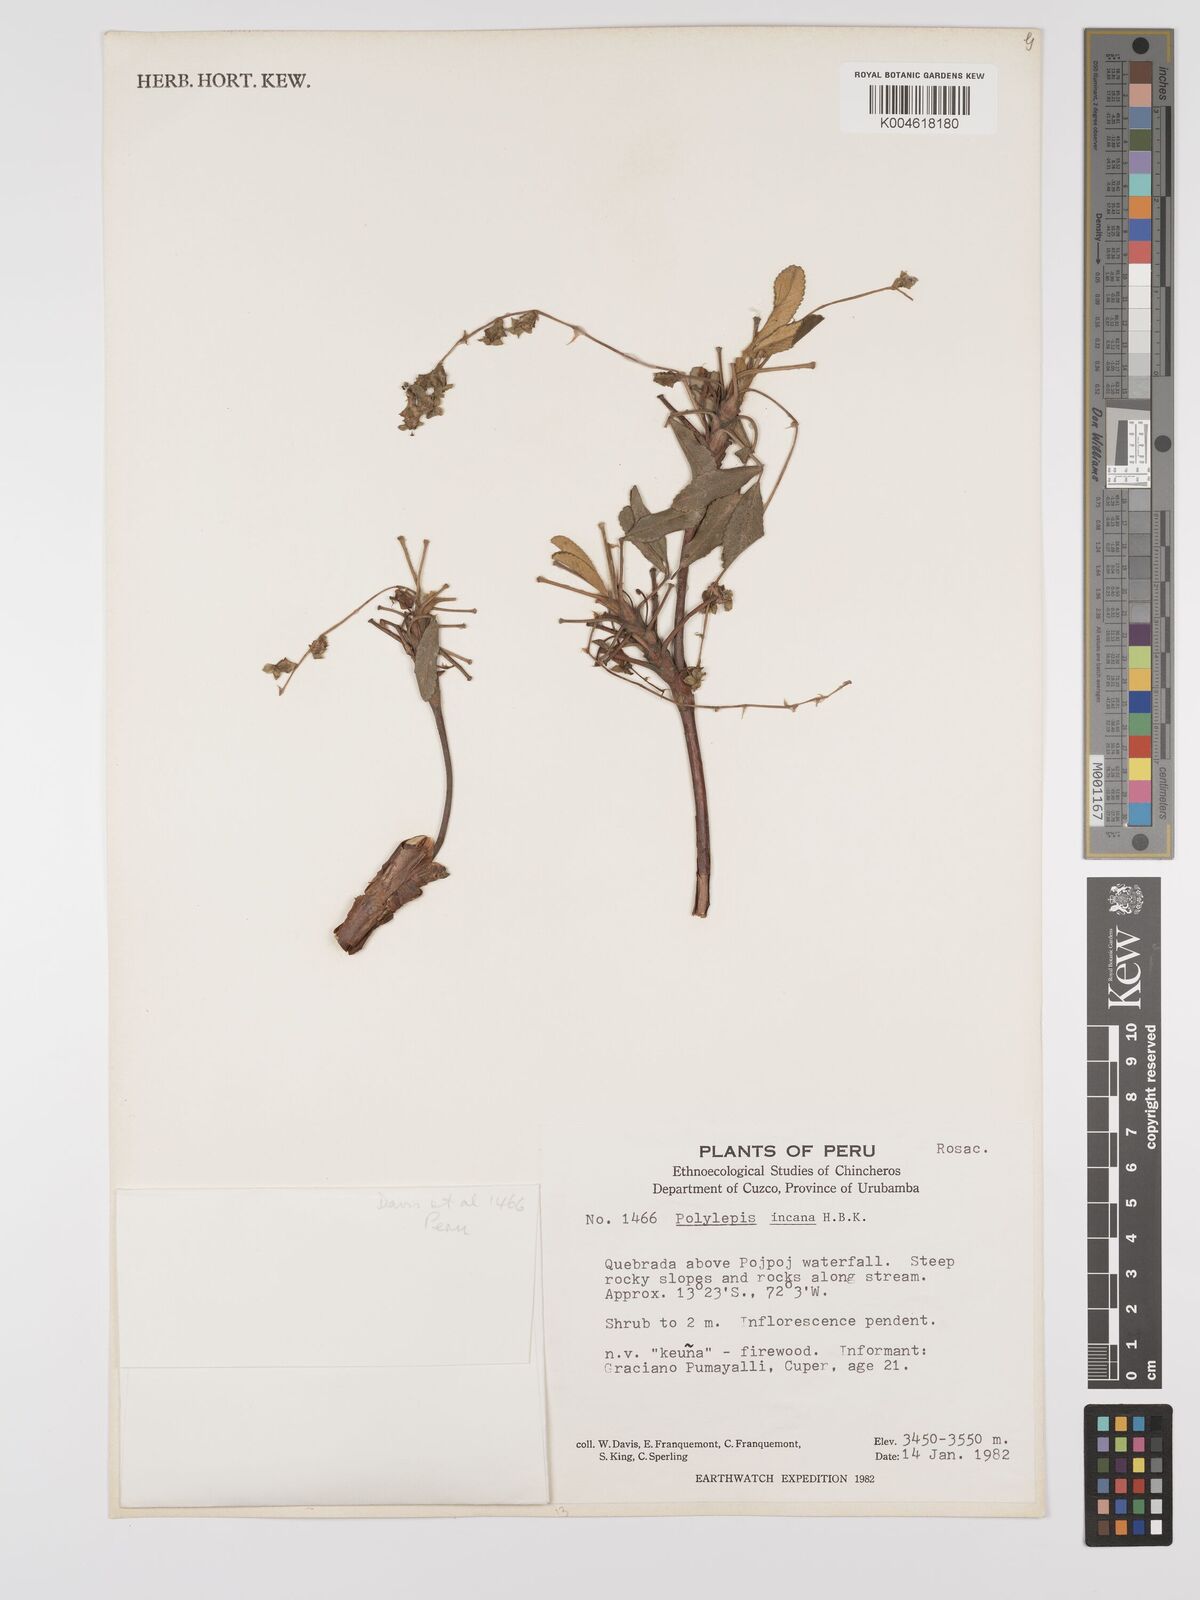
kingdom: Plantae
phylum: Tracheophyta
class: Magnoliopsida
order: Rosales
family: Rosaceae
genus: Polylepis
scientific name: Polylepis incana
